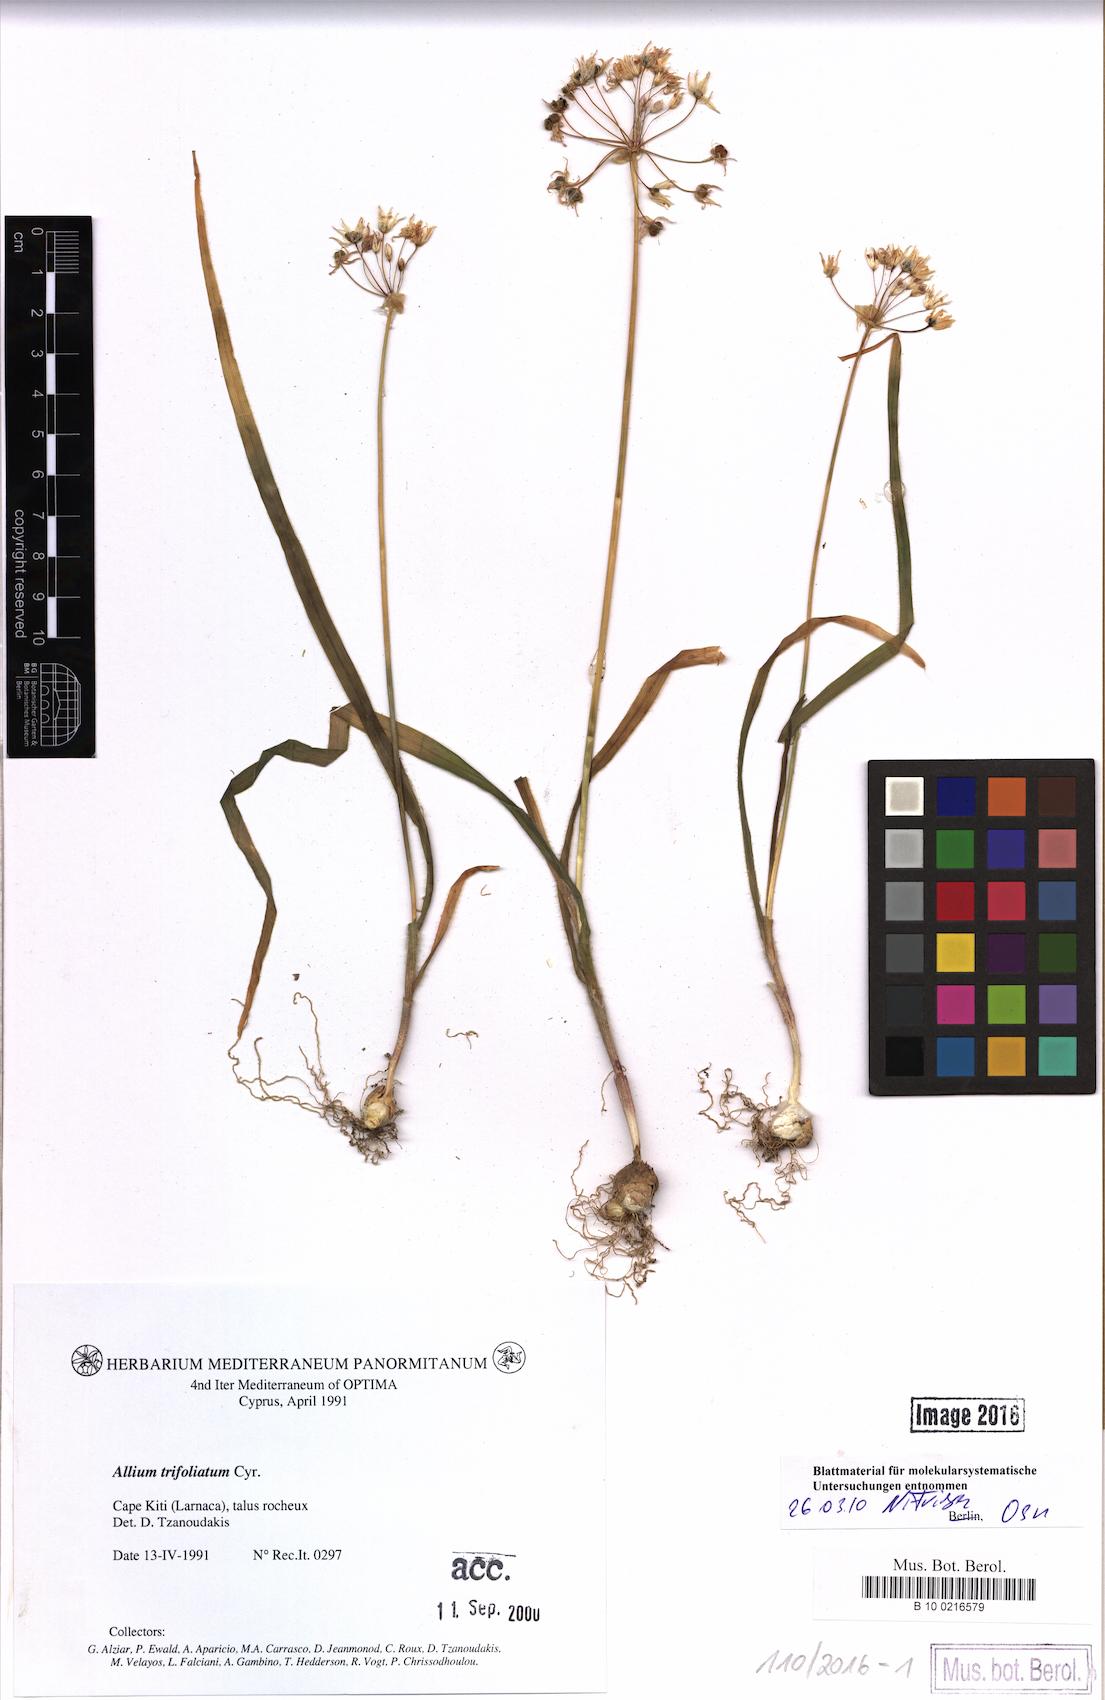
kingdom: Plantae
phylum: Tracheophyta
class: Liliopsida
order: Asparagales
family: Amaryllidaceae
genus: Allium
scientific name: Allium trifoliatum
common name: Pink garlic
